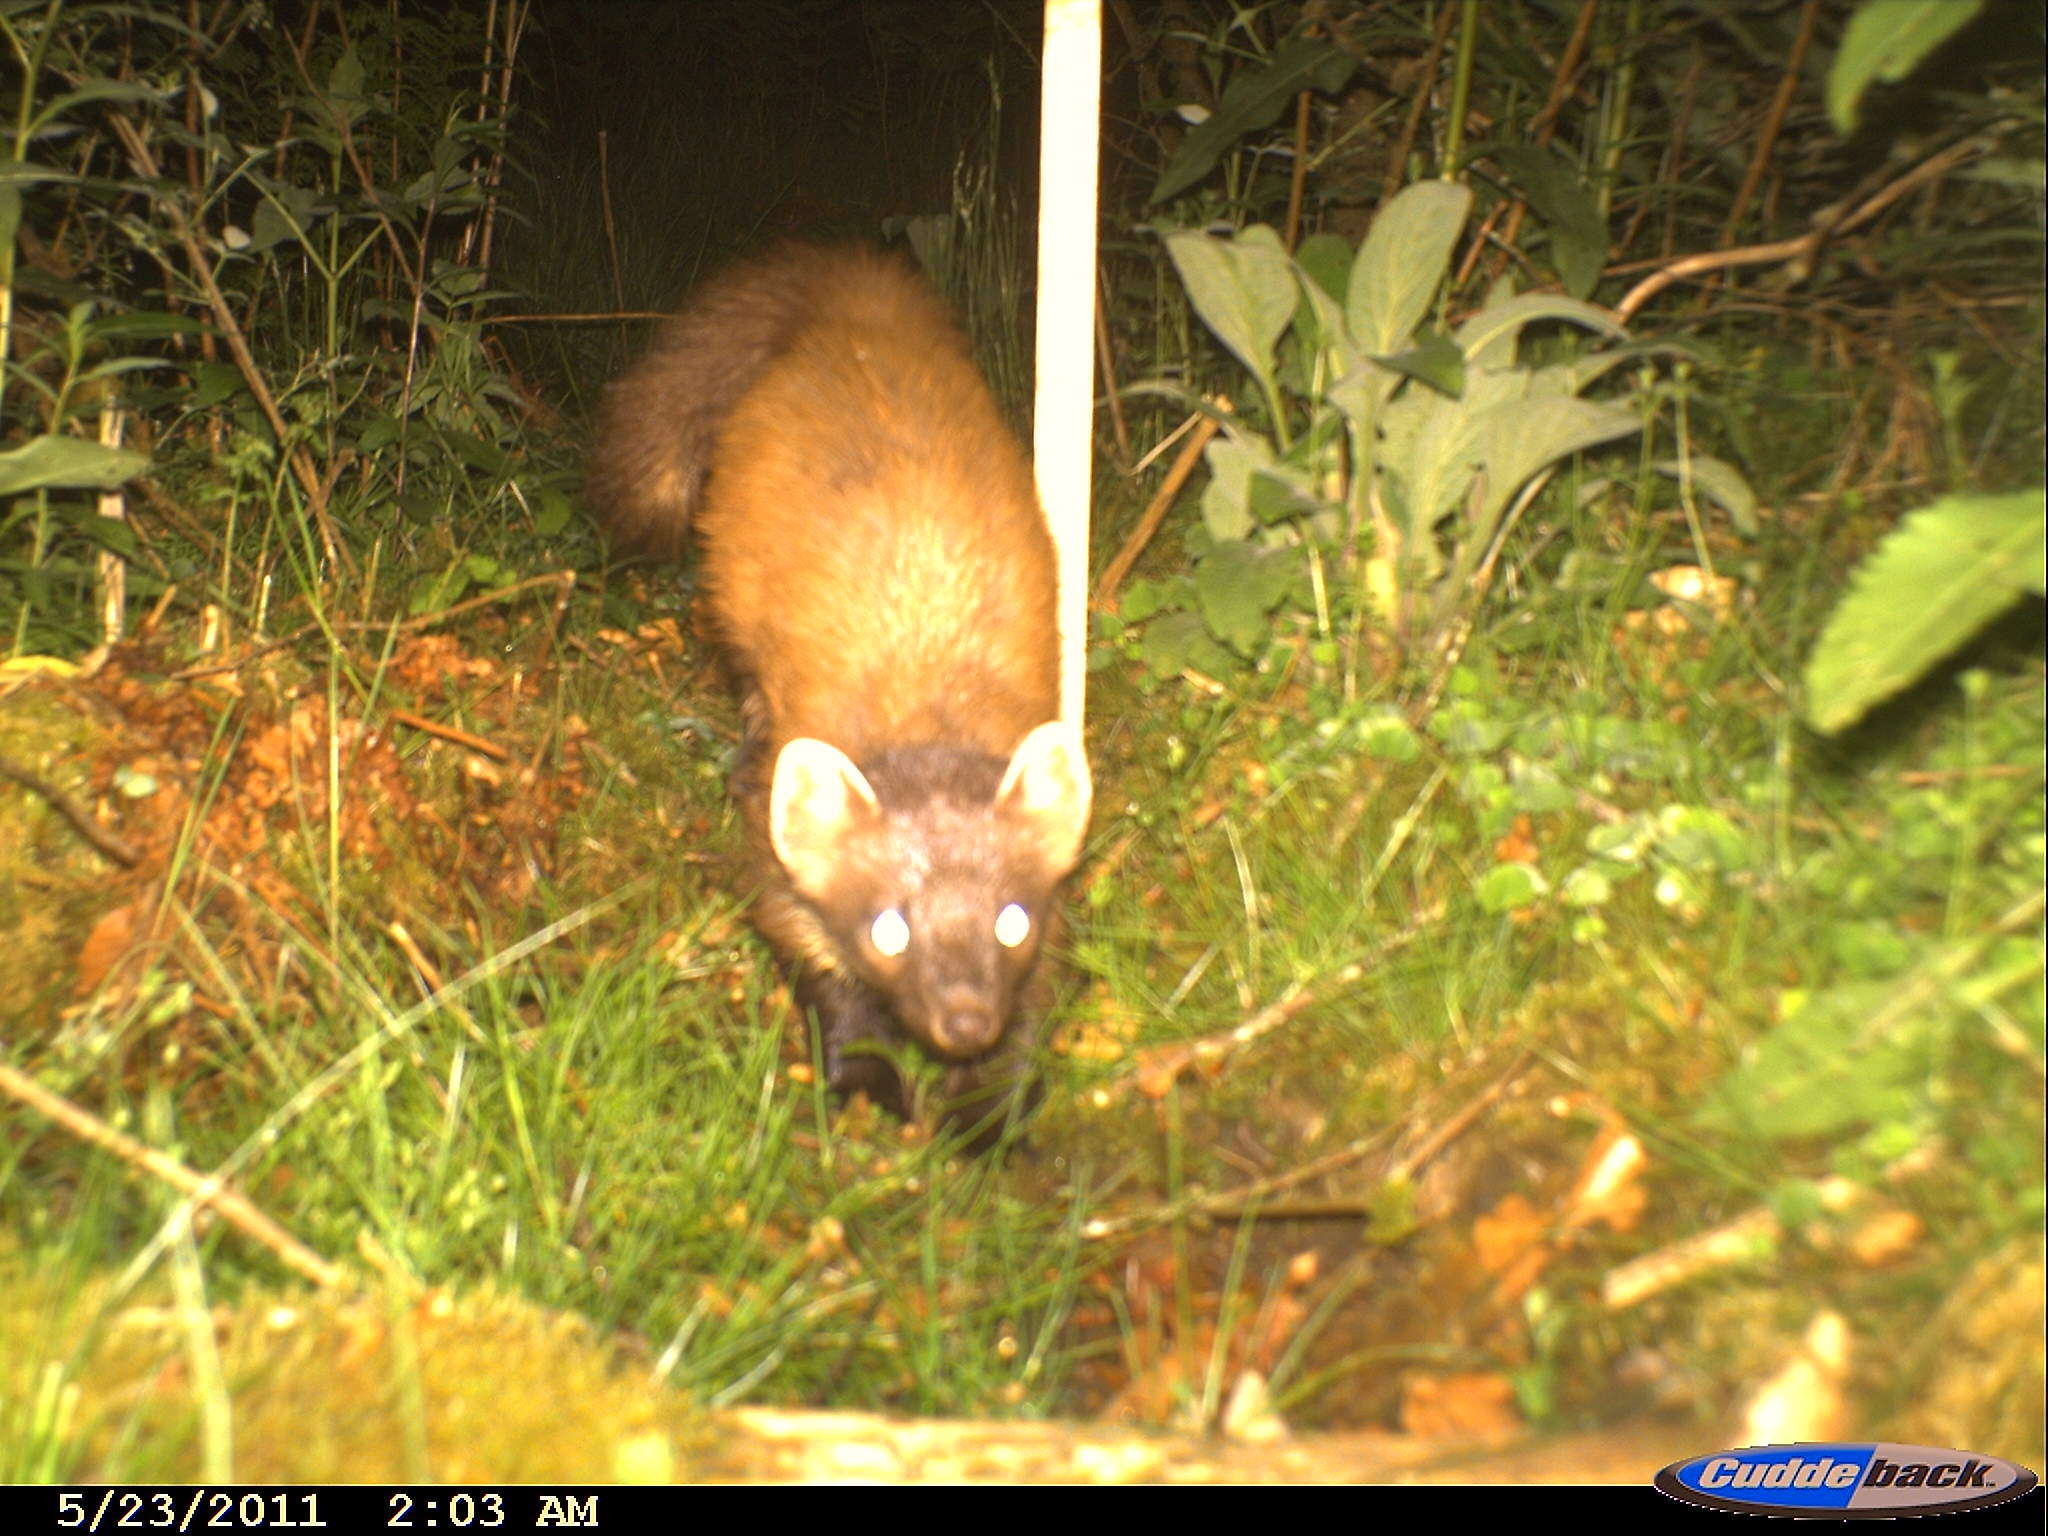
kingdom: Animalia
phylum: Chordata
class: Mammalia
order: Carnivora
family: Mustelidae
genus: Martes
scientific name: Martes martes
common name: European pine marten
